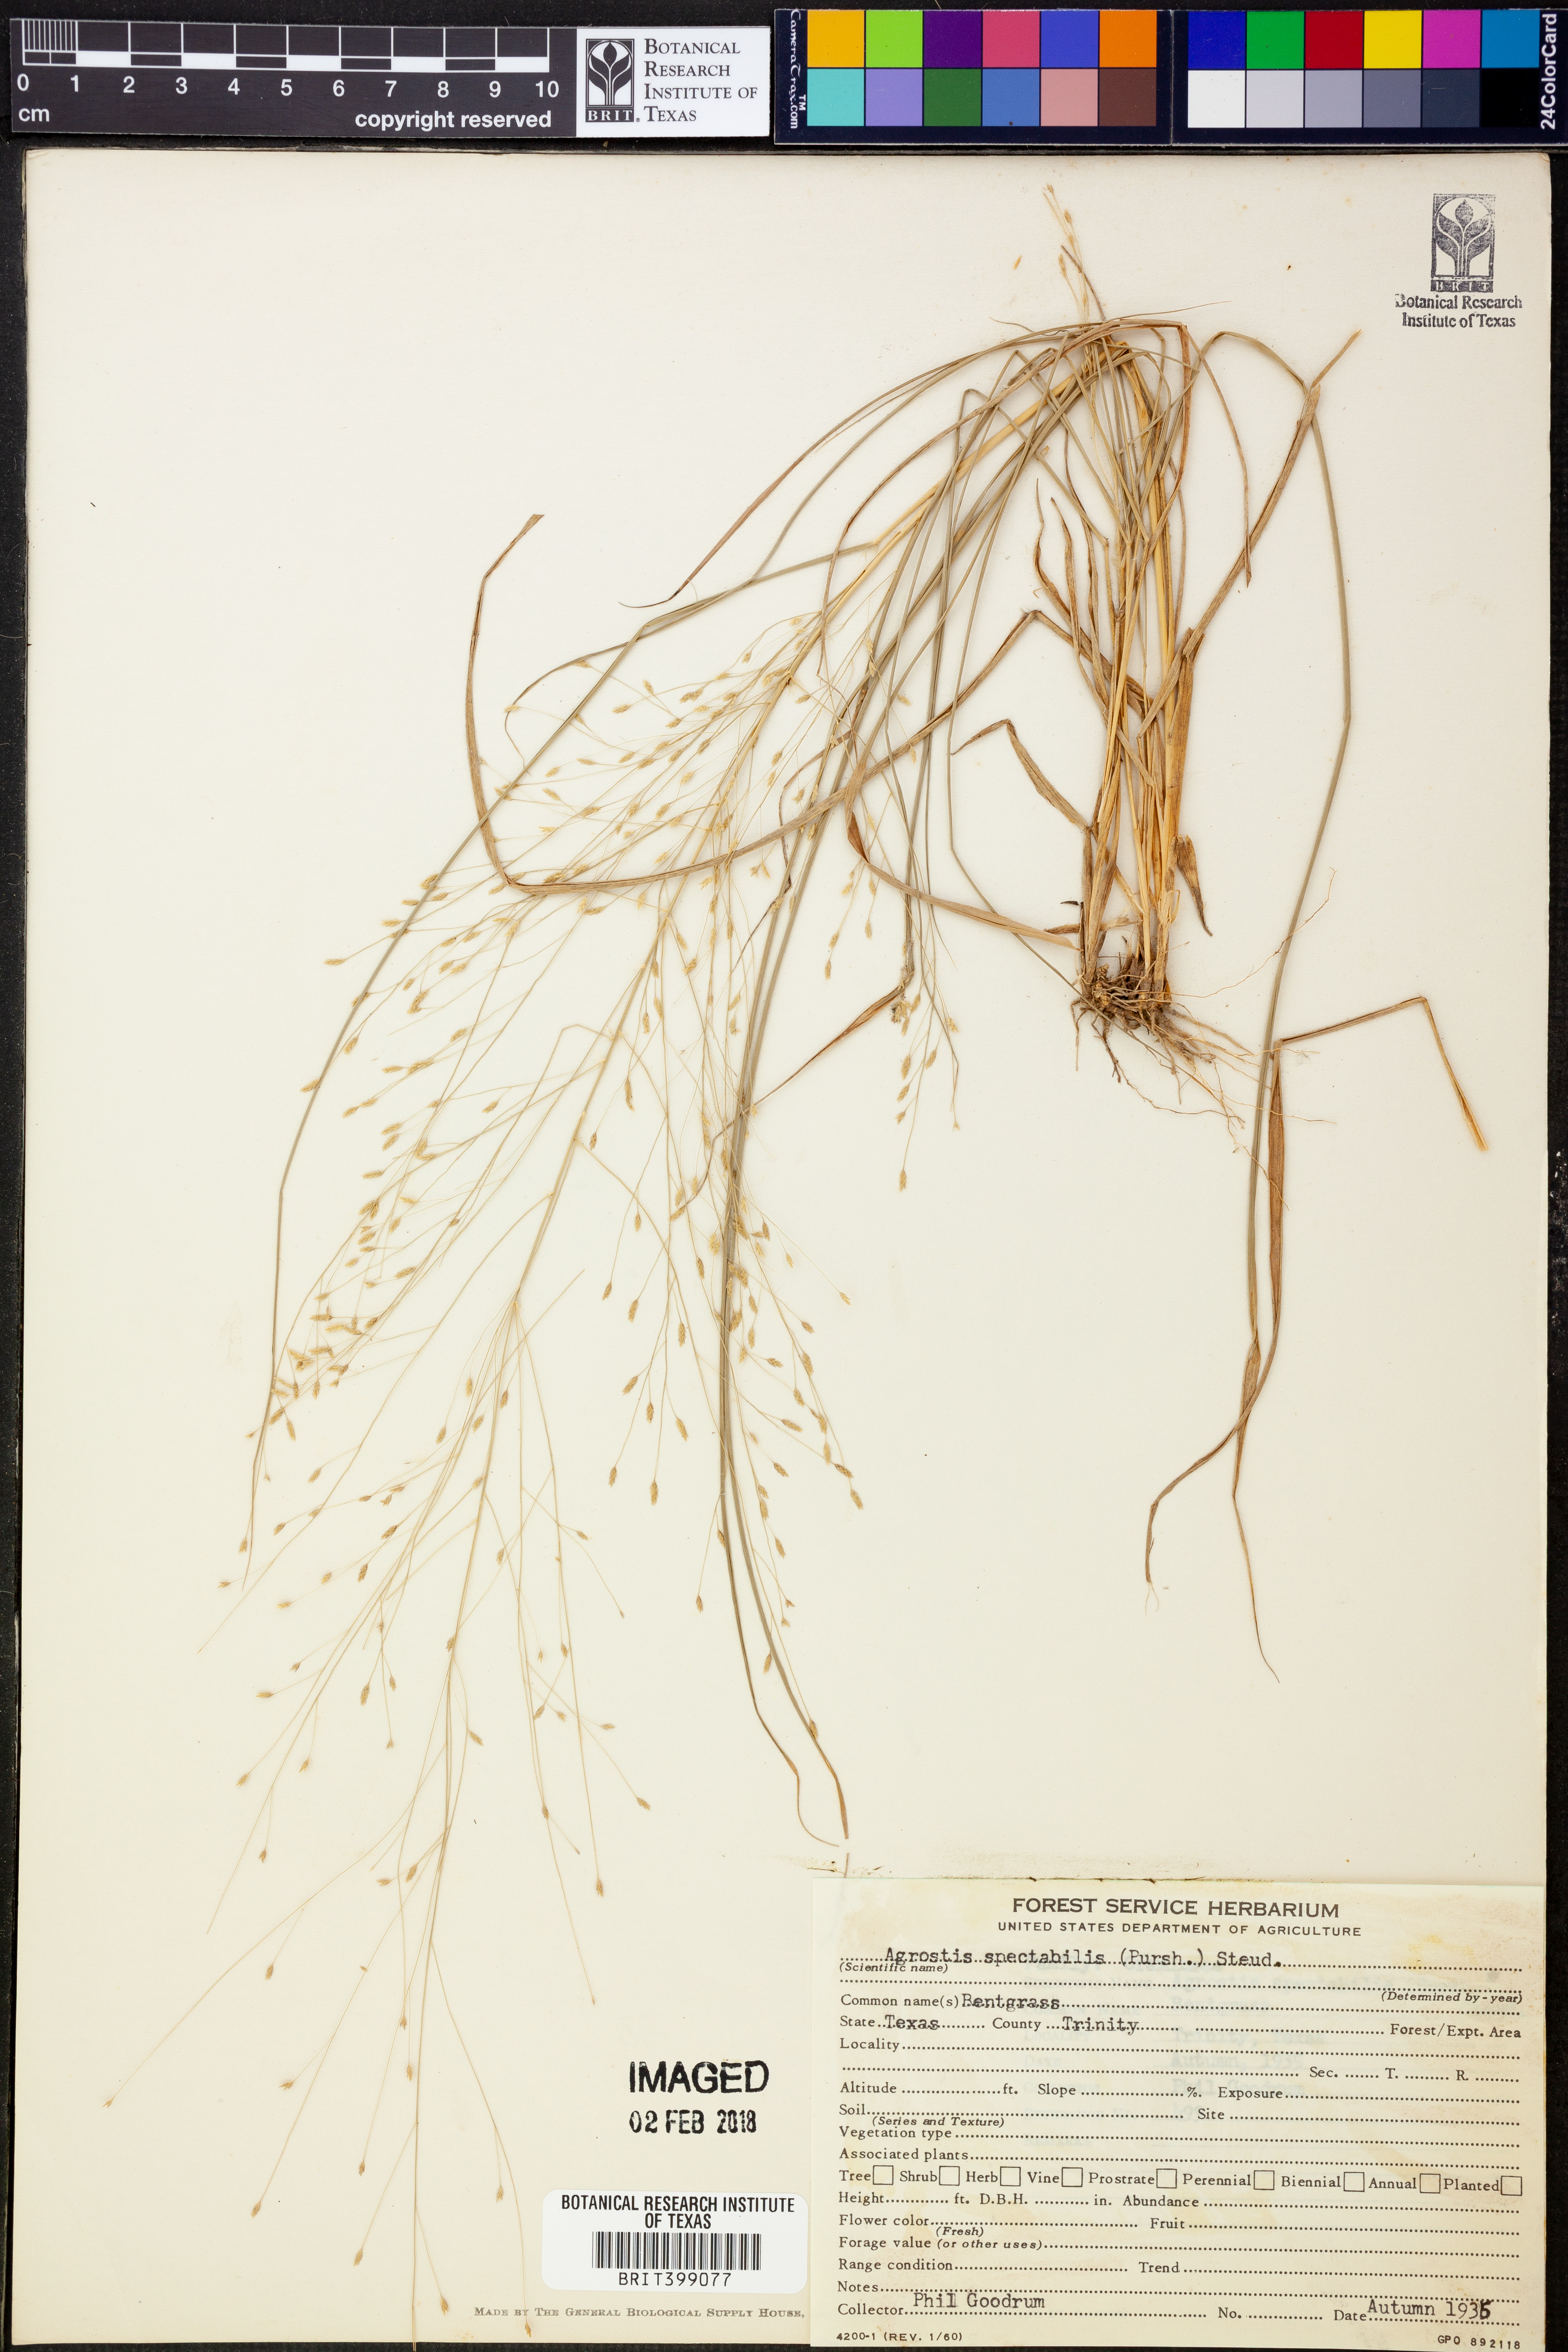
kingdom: Plantae
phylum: Tracheophyta
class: Liliopsida
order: Poales
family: Poaceae
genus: Eragrostis
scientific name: Eragrostis spectabilis
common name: Petticoat-climber
